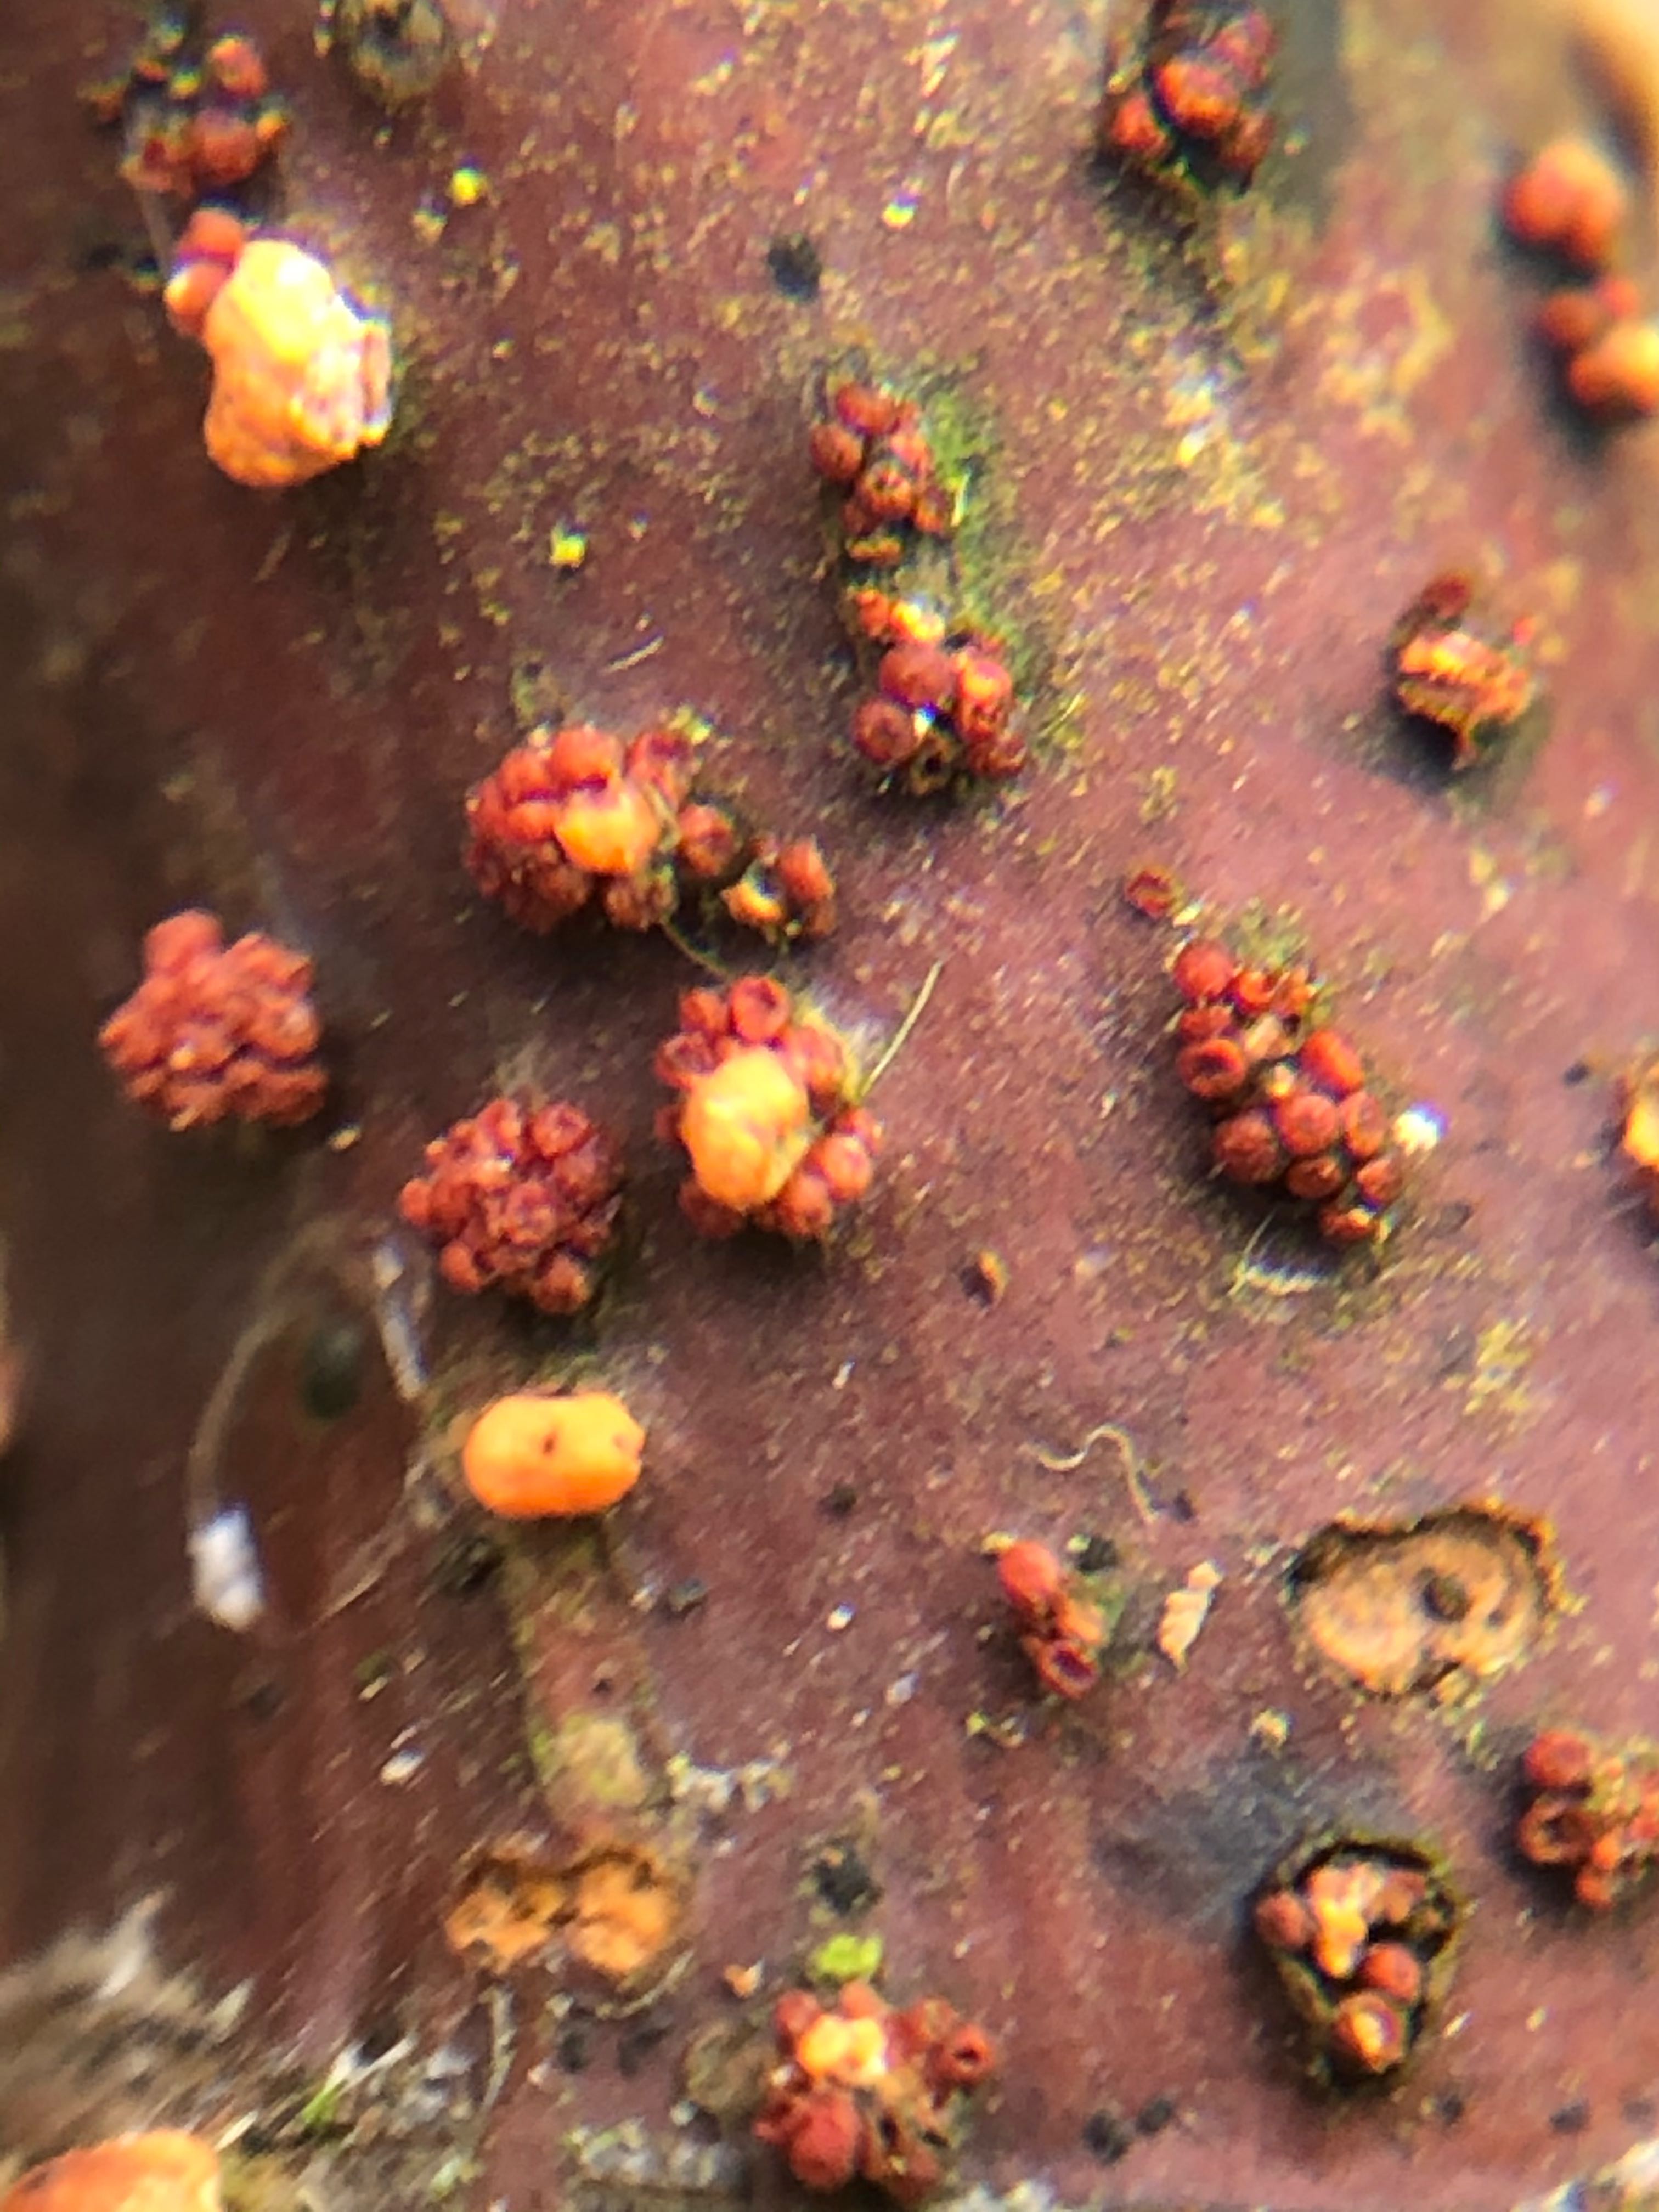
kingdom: Fungi
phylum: Basidiomycota
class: Dacrymycetes
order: Dacrymycetales
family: Dacrymycetaceae
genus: Dacrymyces
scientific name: Dacrymyces stillatus
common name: almindelig tåresvamp
